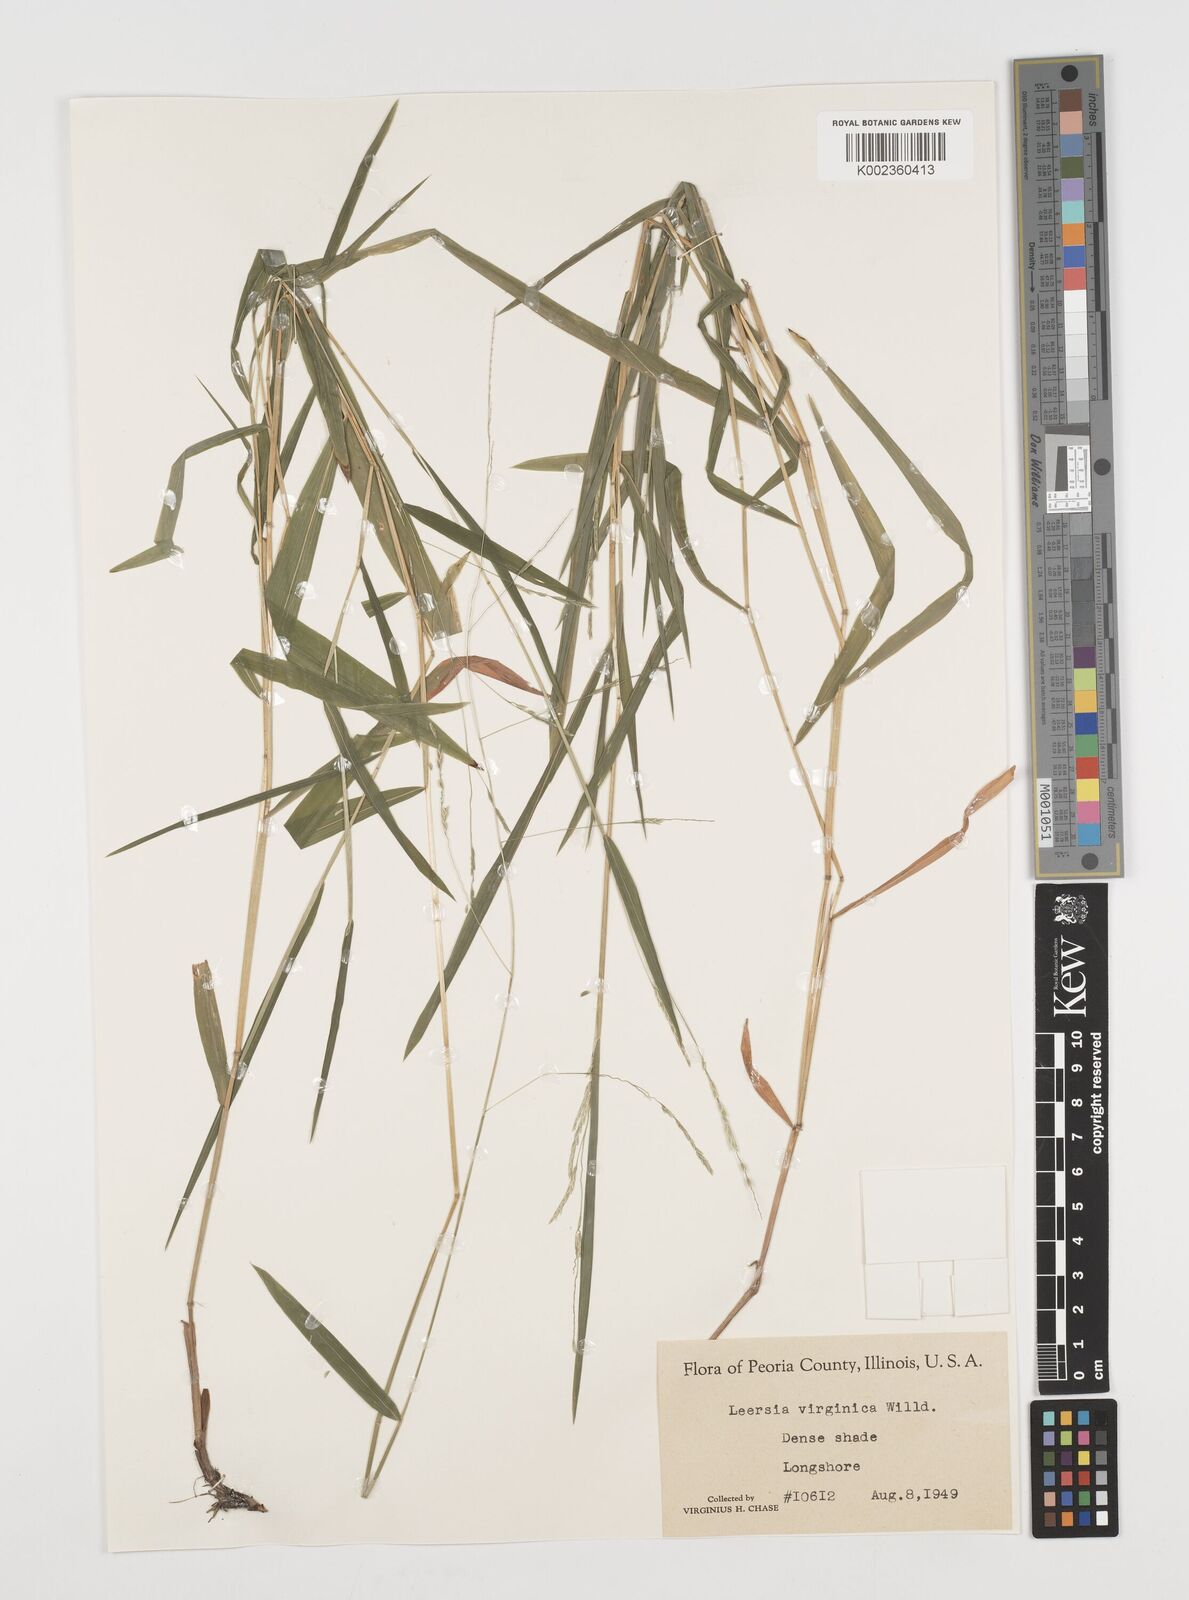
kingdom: Plantae
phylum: Tracheophyta
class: Liliopsida
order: Poales
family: Poaceae
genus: Leersia
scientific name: Leersia virginica
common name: White cutgrass
